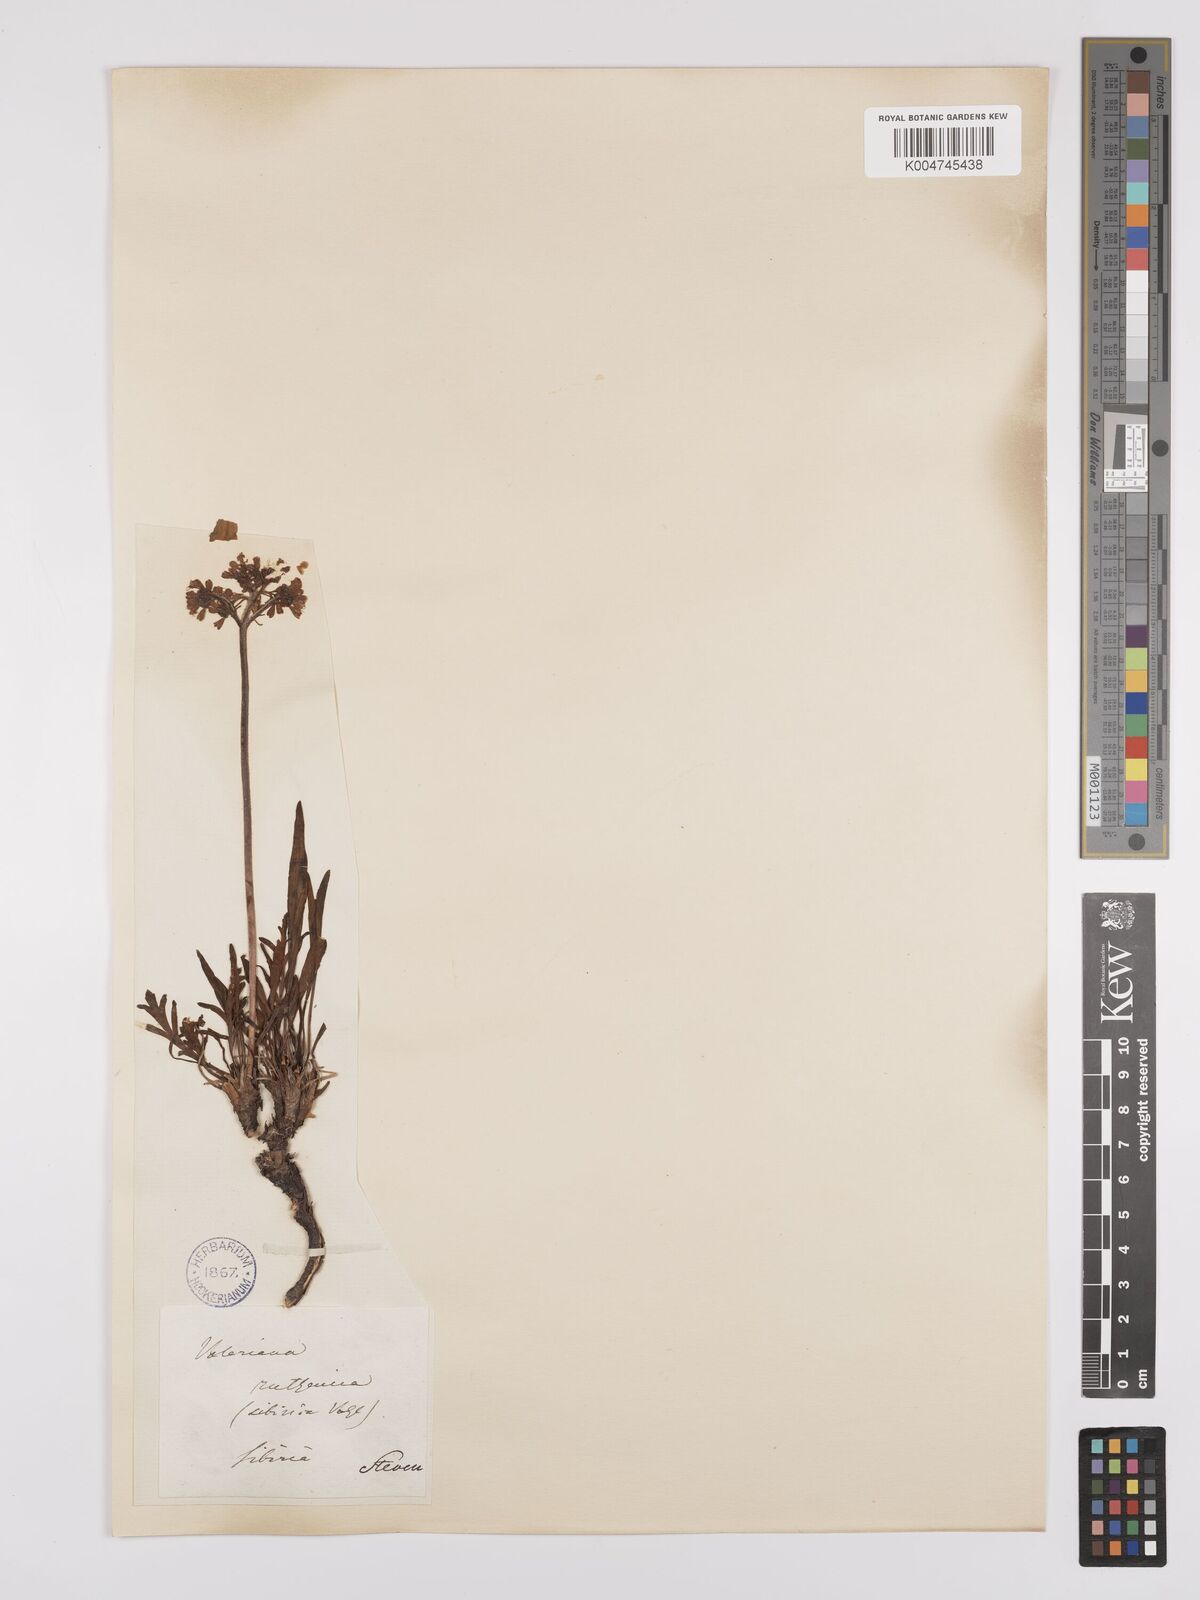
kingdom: Plantae
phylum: Tracheophyta
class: Magnoliopsida
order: Dipsacales
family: Caprifoliaceae
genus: Patrinia
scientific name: Patrinia sibirica
